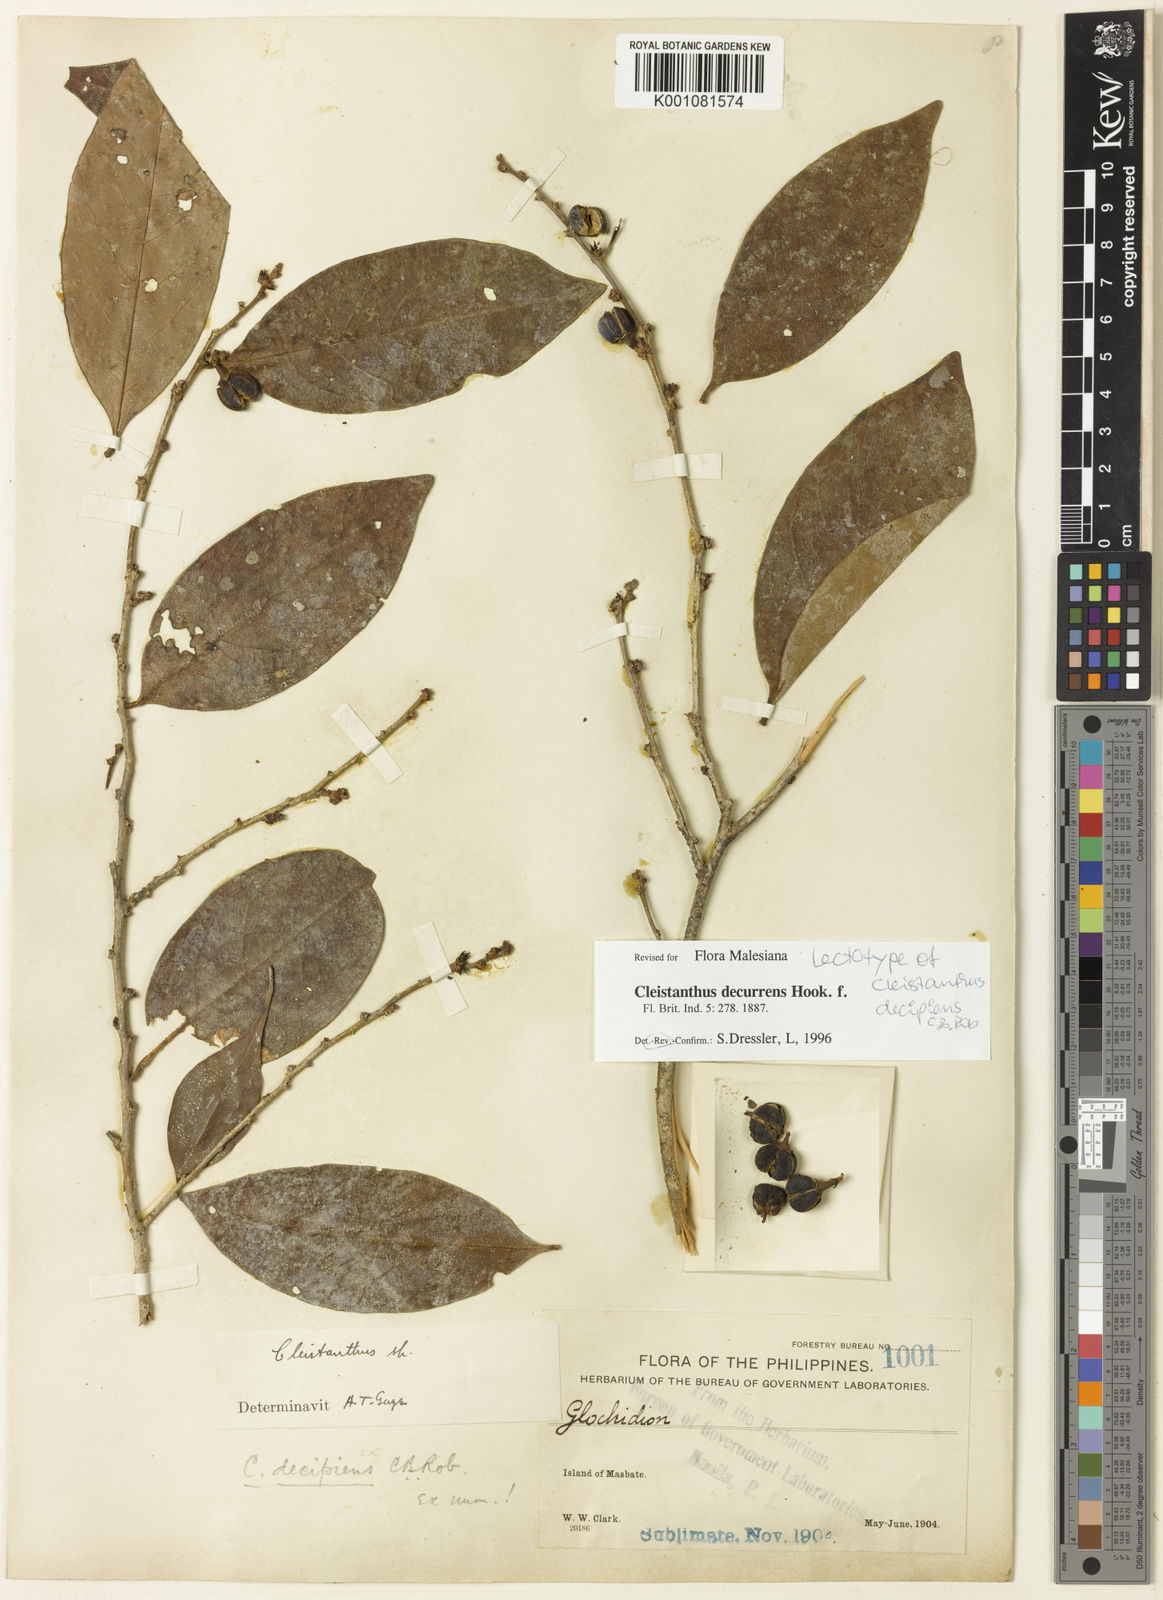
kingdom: Plantae
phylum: Tracheophyta
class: Magnoliopsida
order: Malpighiales
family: Phyllanthaceae
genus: Cleistanthus
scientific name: Cleistanthus decurrens
